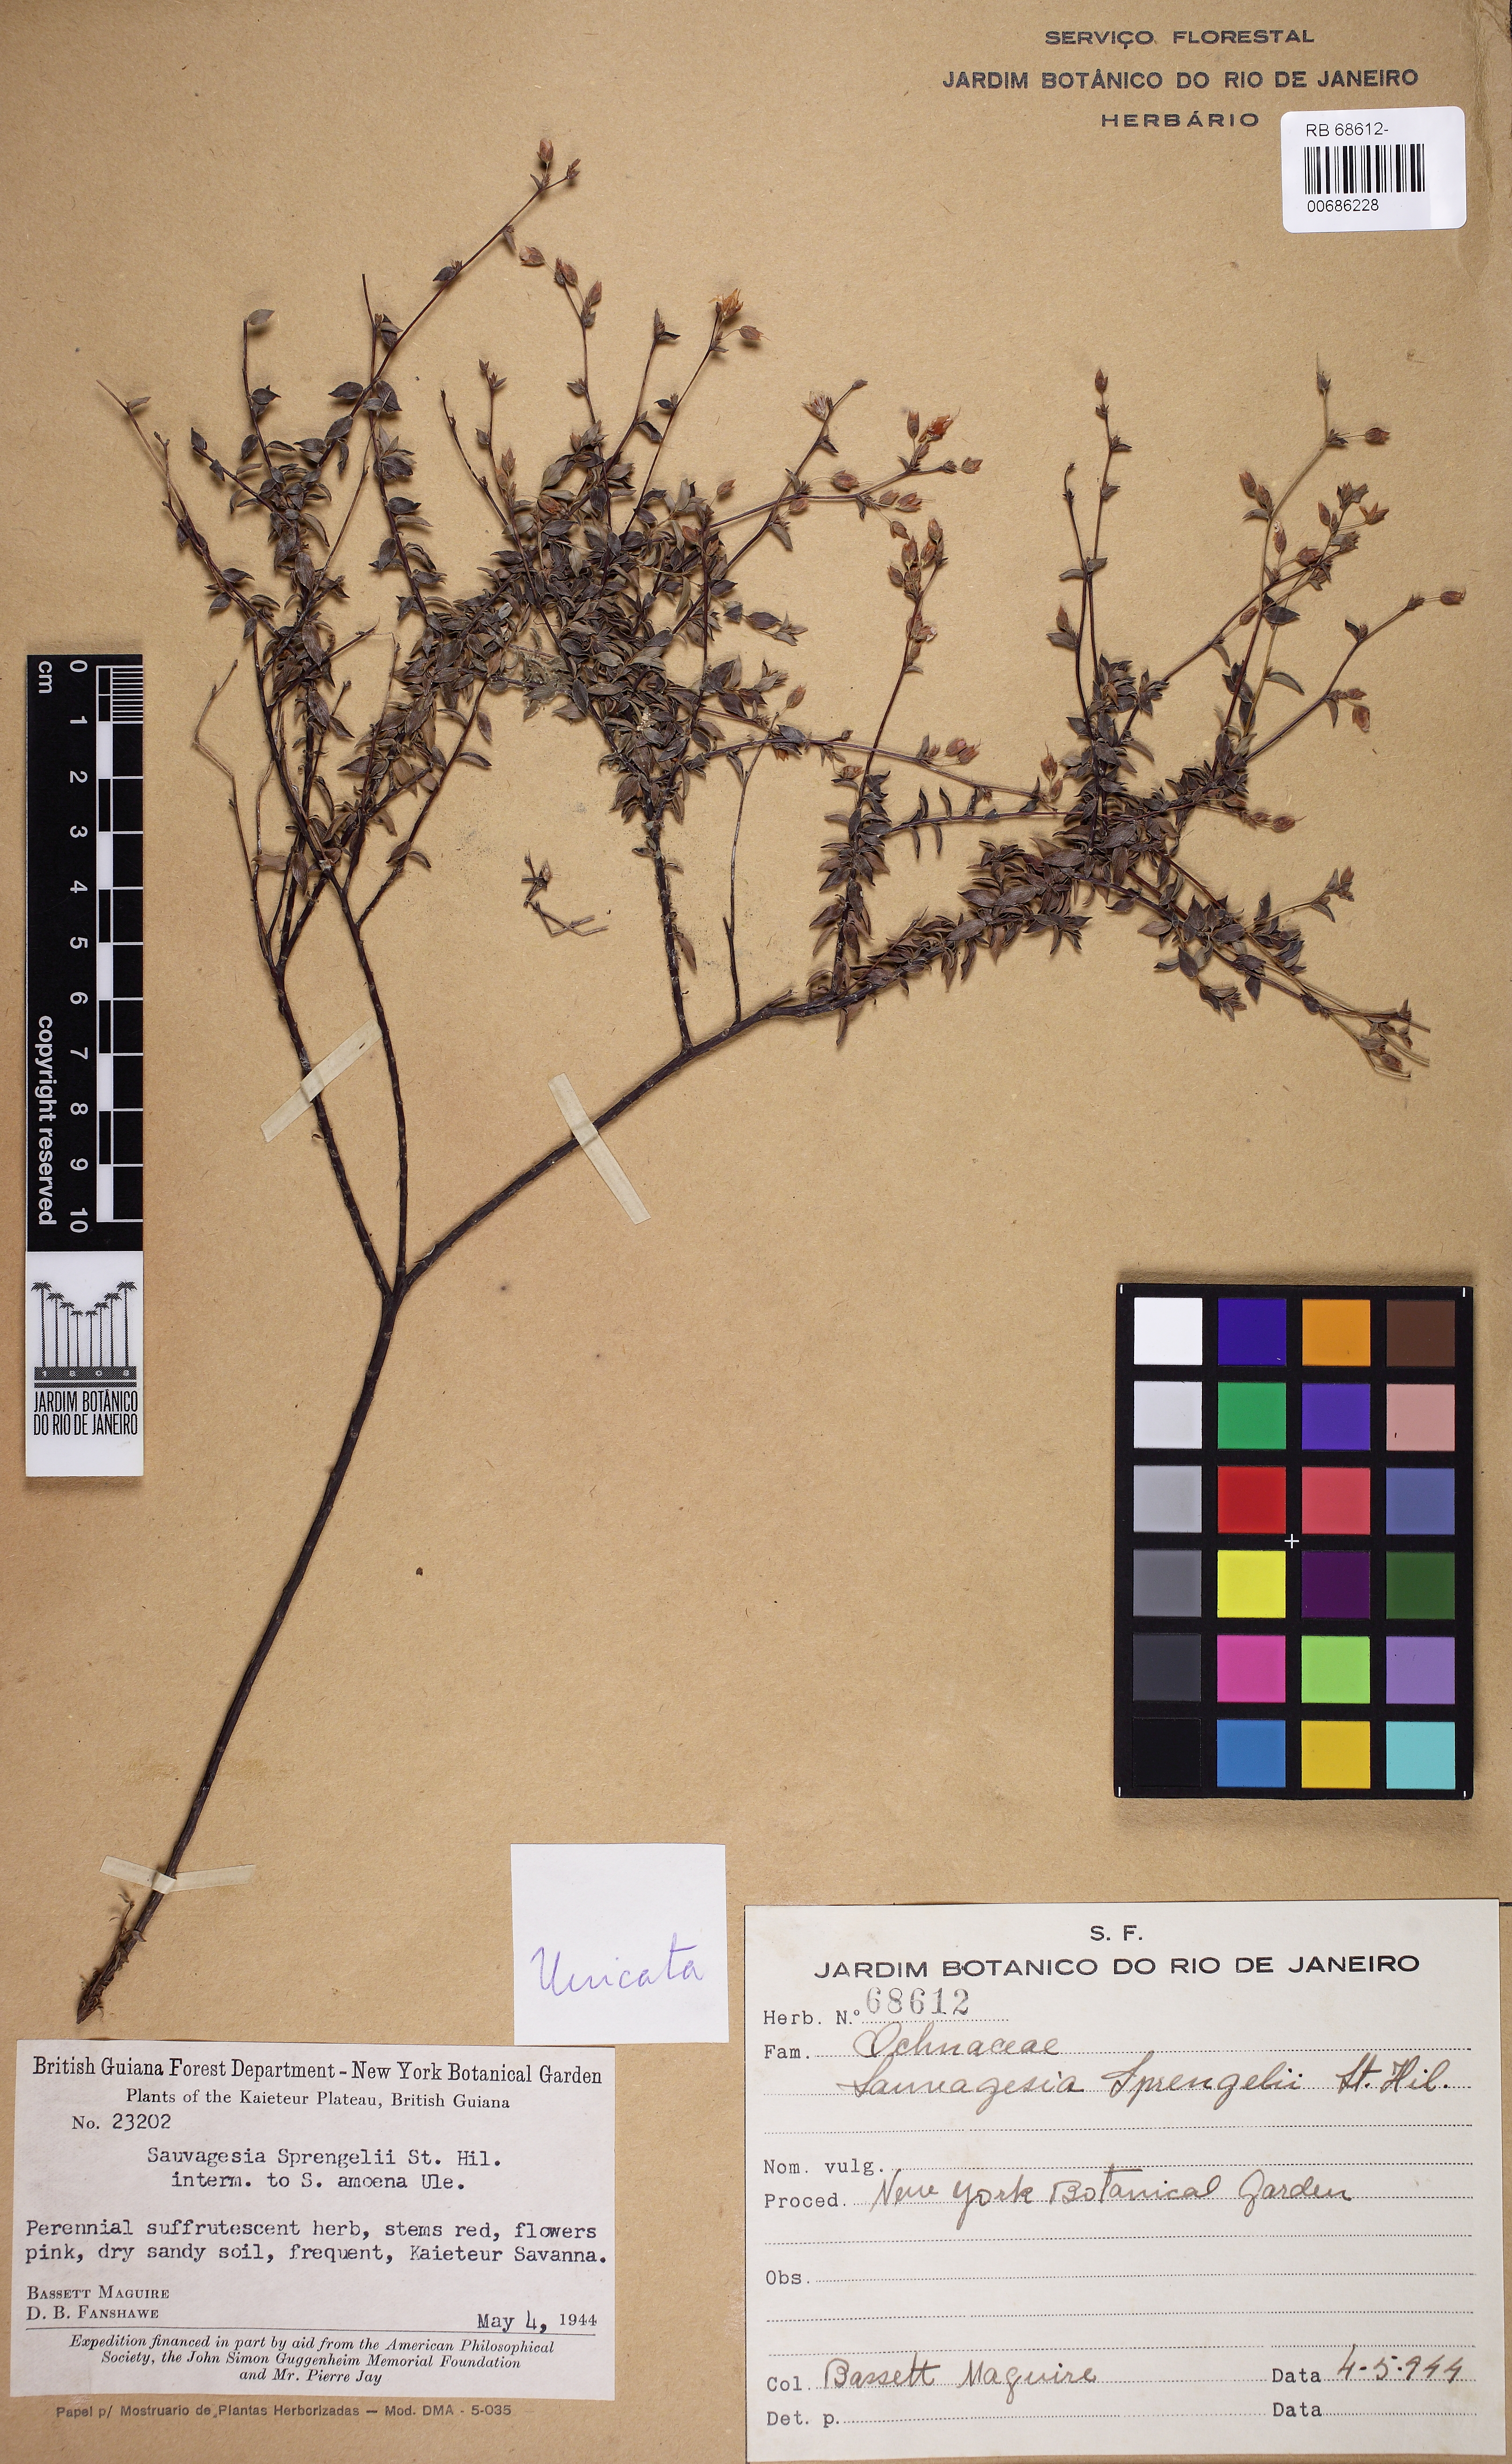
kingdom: Plantae
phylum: Tracheophyta
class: Magnoliopsida
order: Malpighiales
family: Ochnaceae
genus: Sauvagesia
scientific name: Sauvagesia sprengelii
